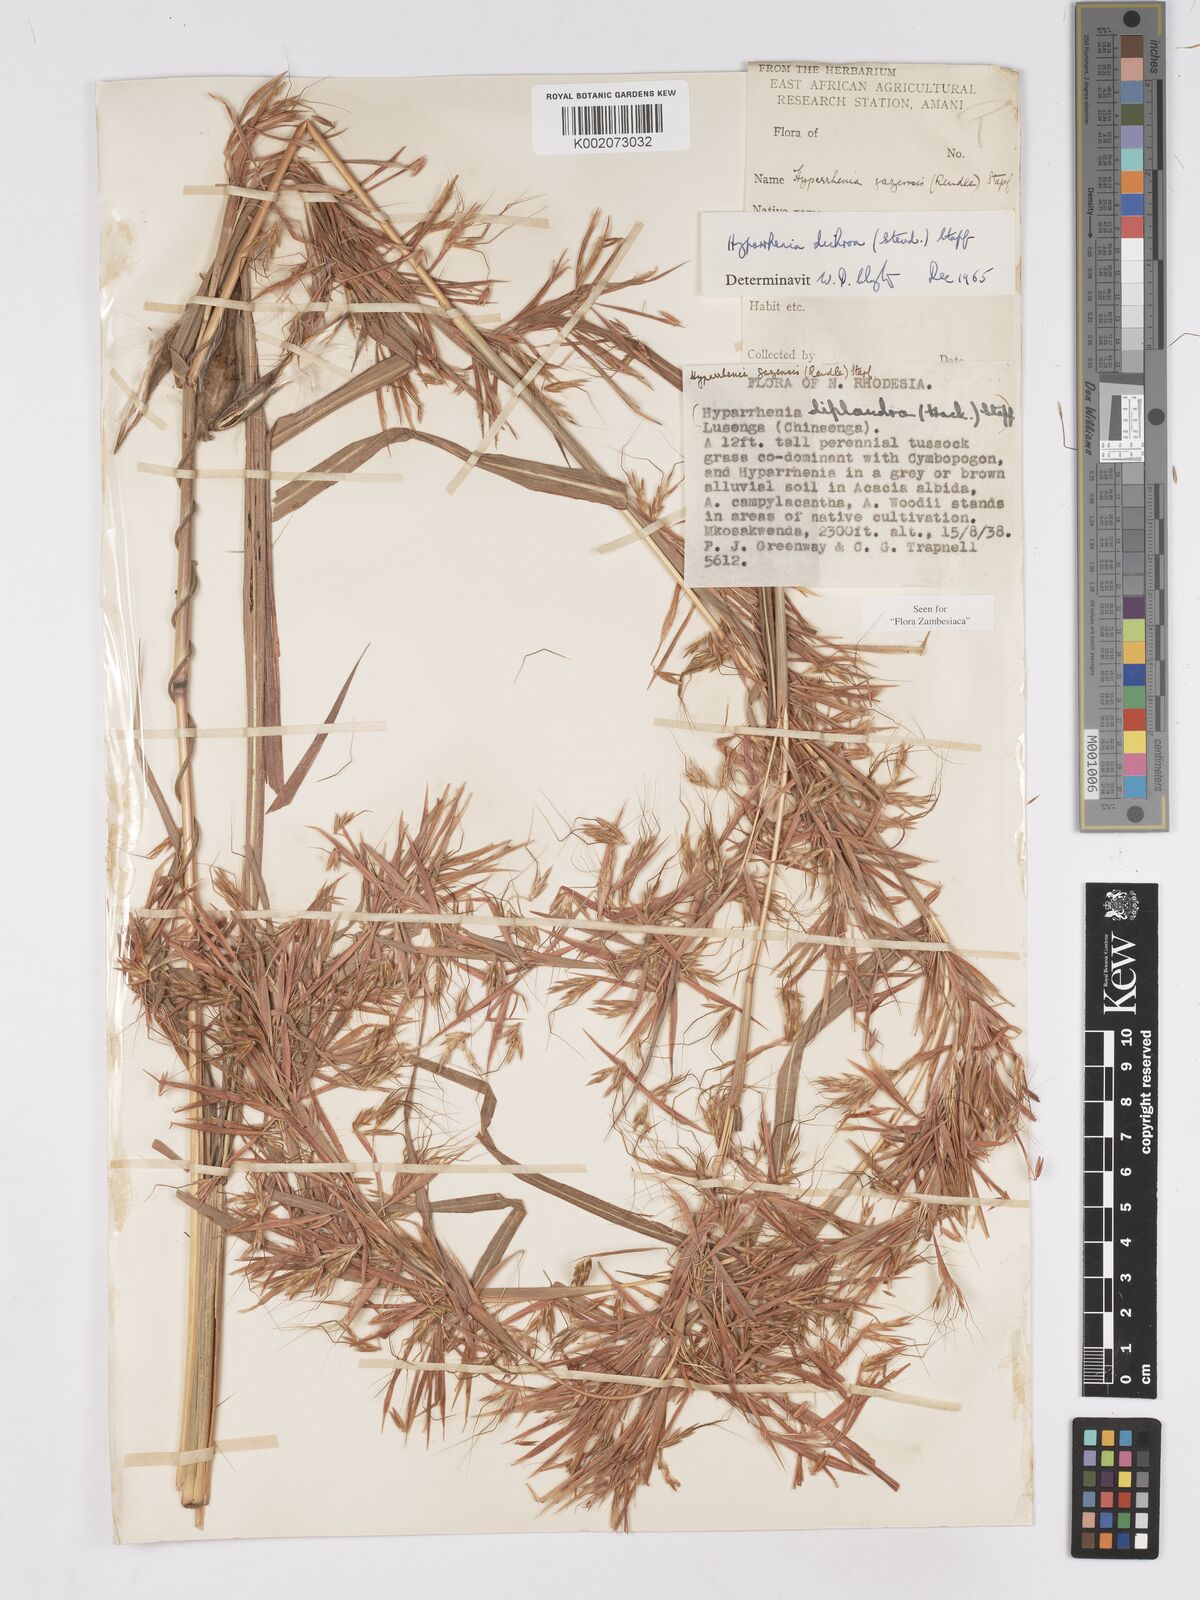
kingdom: Plantae
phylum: Tracheophyta
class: Liliopsida
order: Poales
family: Poaceae
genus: Hyparrhenia
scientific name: Hyparrhenia dichroa
